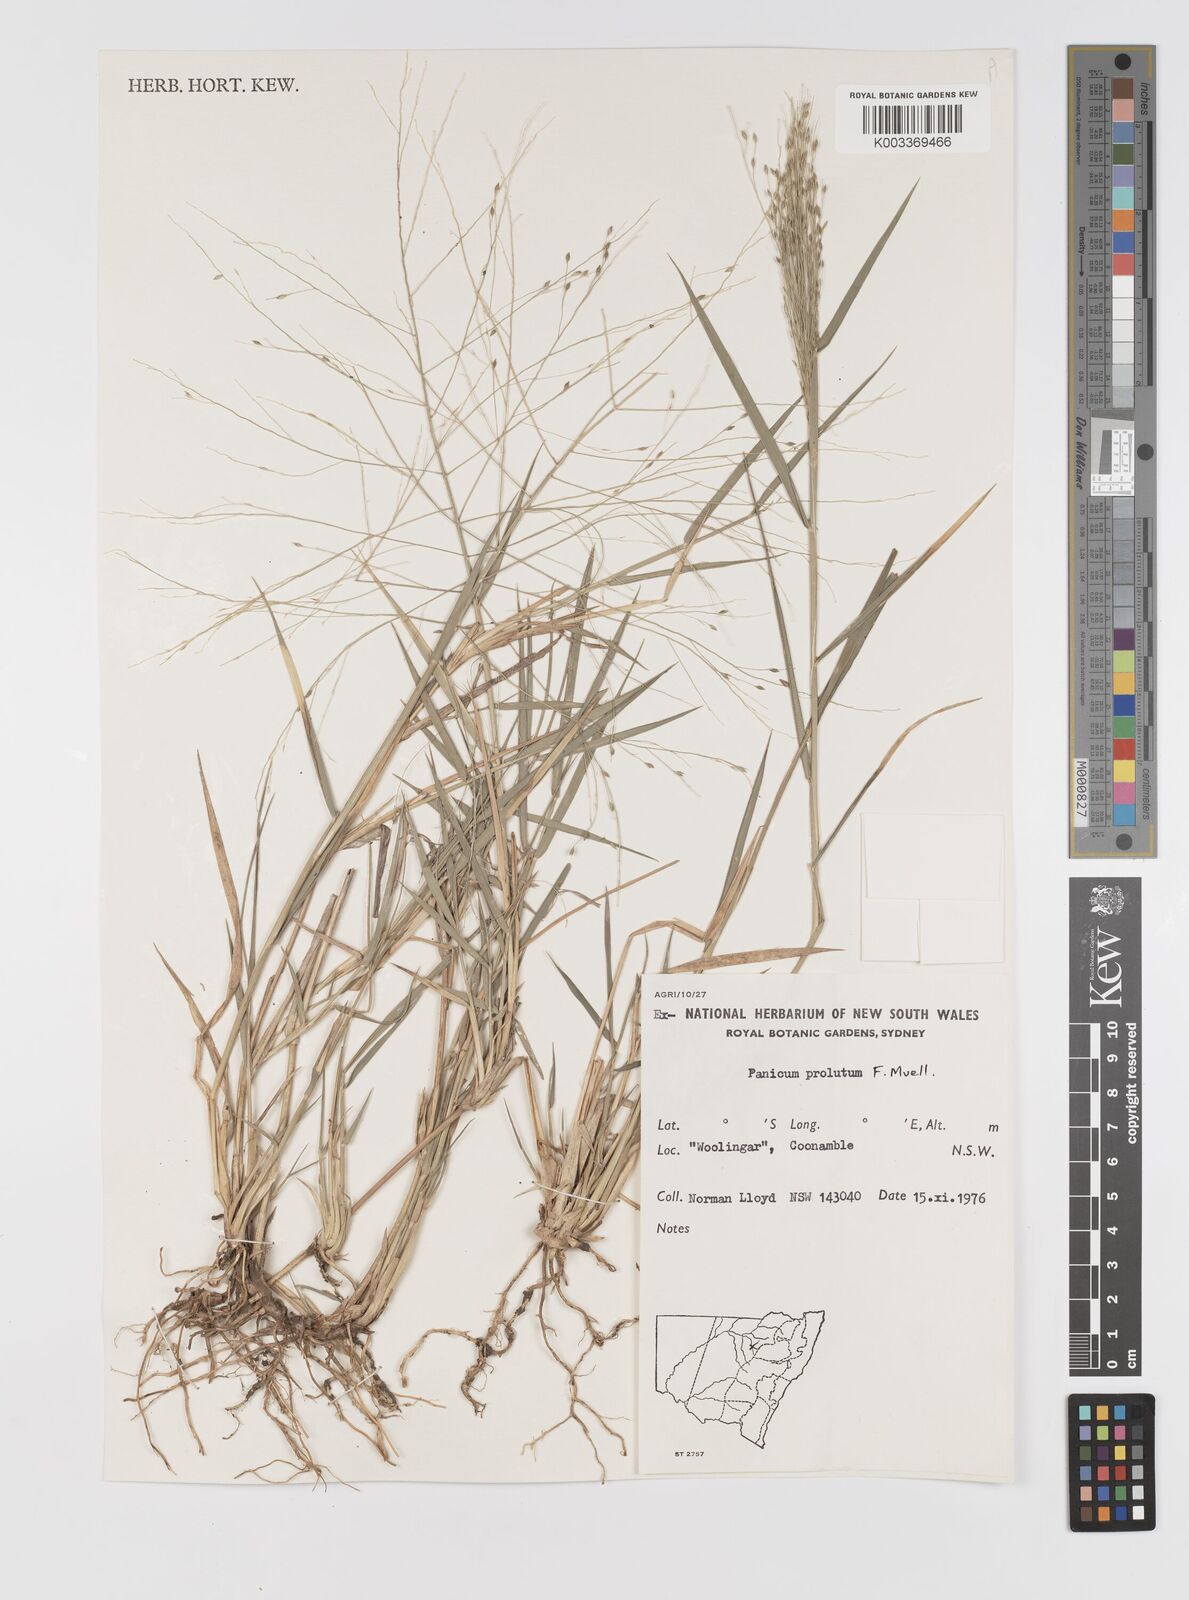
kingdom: Plantae
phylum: Tracheophyta
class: Liliopsida
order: Poales
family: Poaceae
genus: Walwhalleya
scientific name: Walwhalleya proluta
